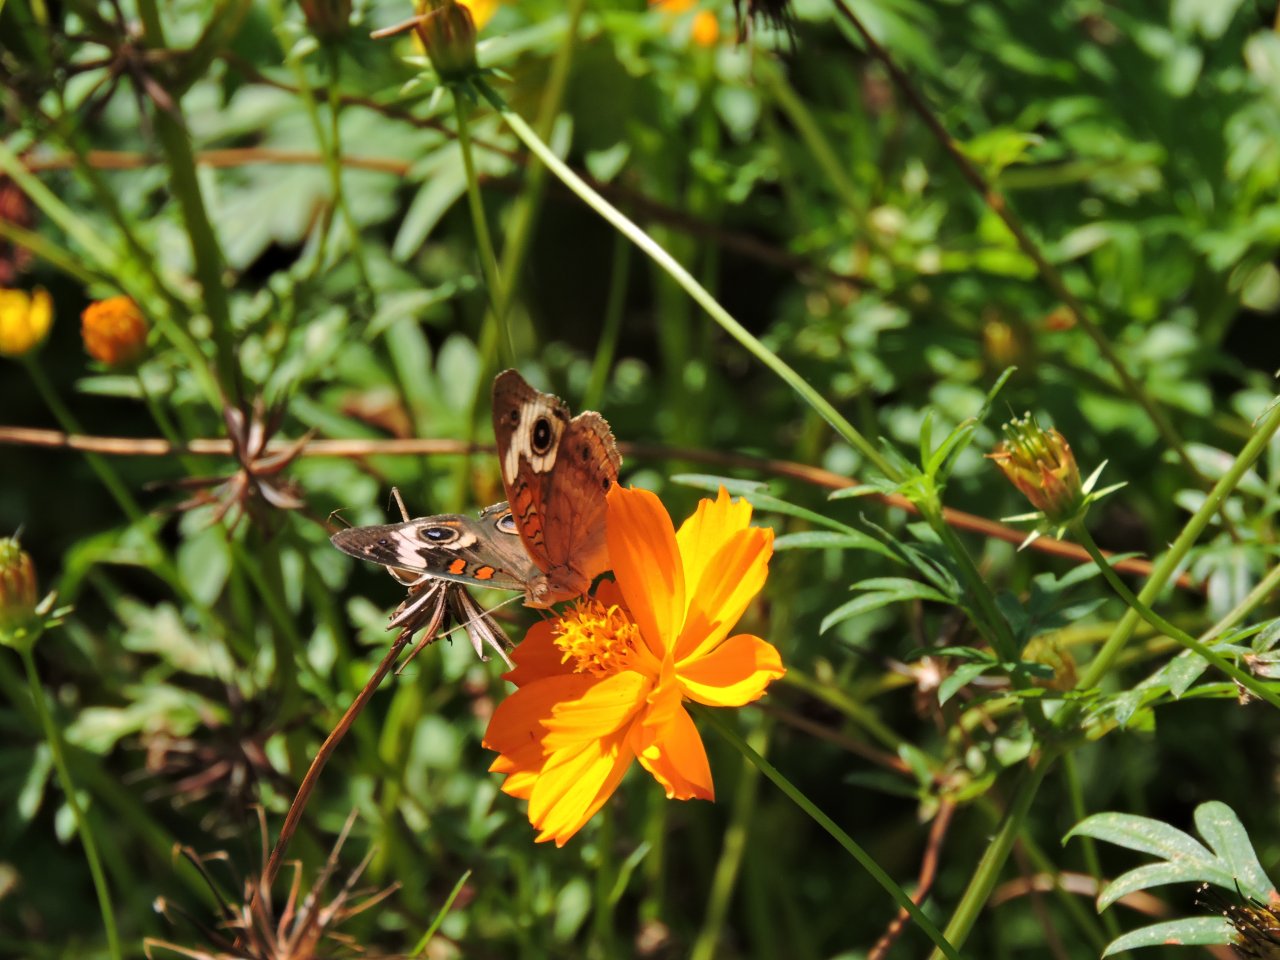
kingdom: Animalia
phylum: Arthropoda
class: Insecta
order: Lepidoptera
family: Nymphalidae
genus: Junonia
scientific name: Junonia coenia
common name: Common Buckeye
